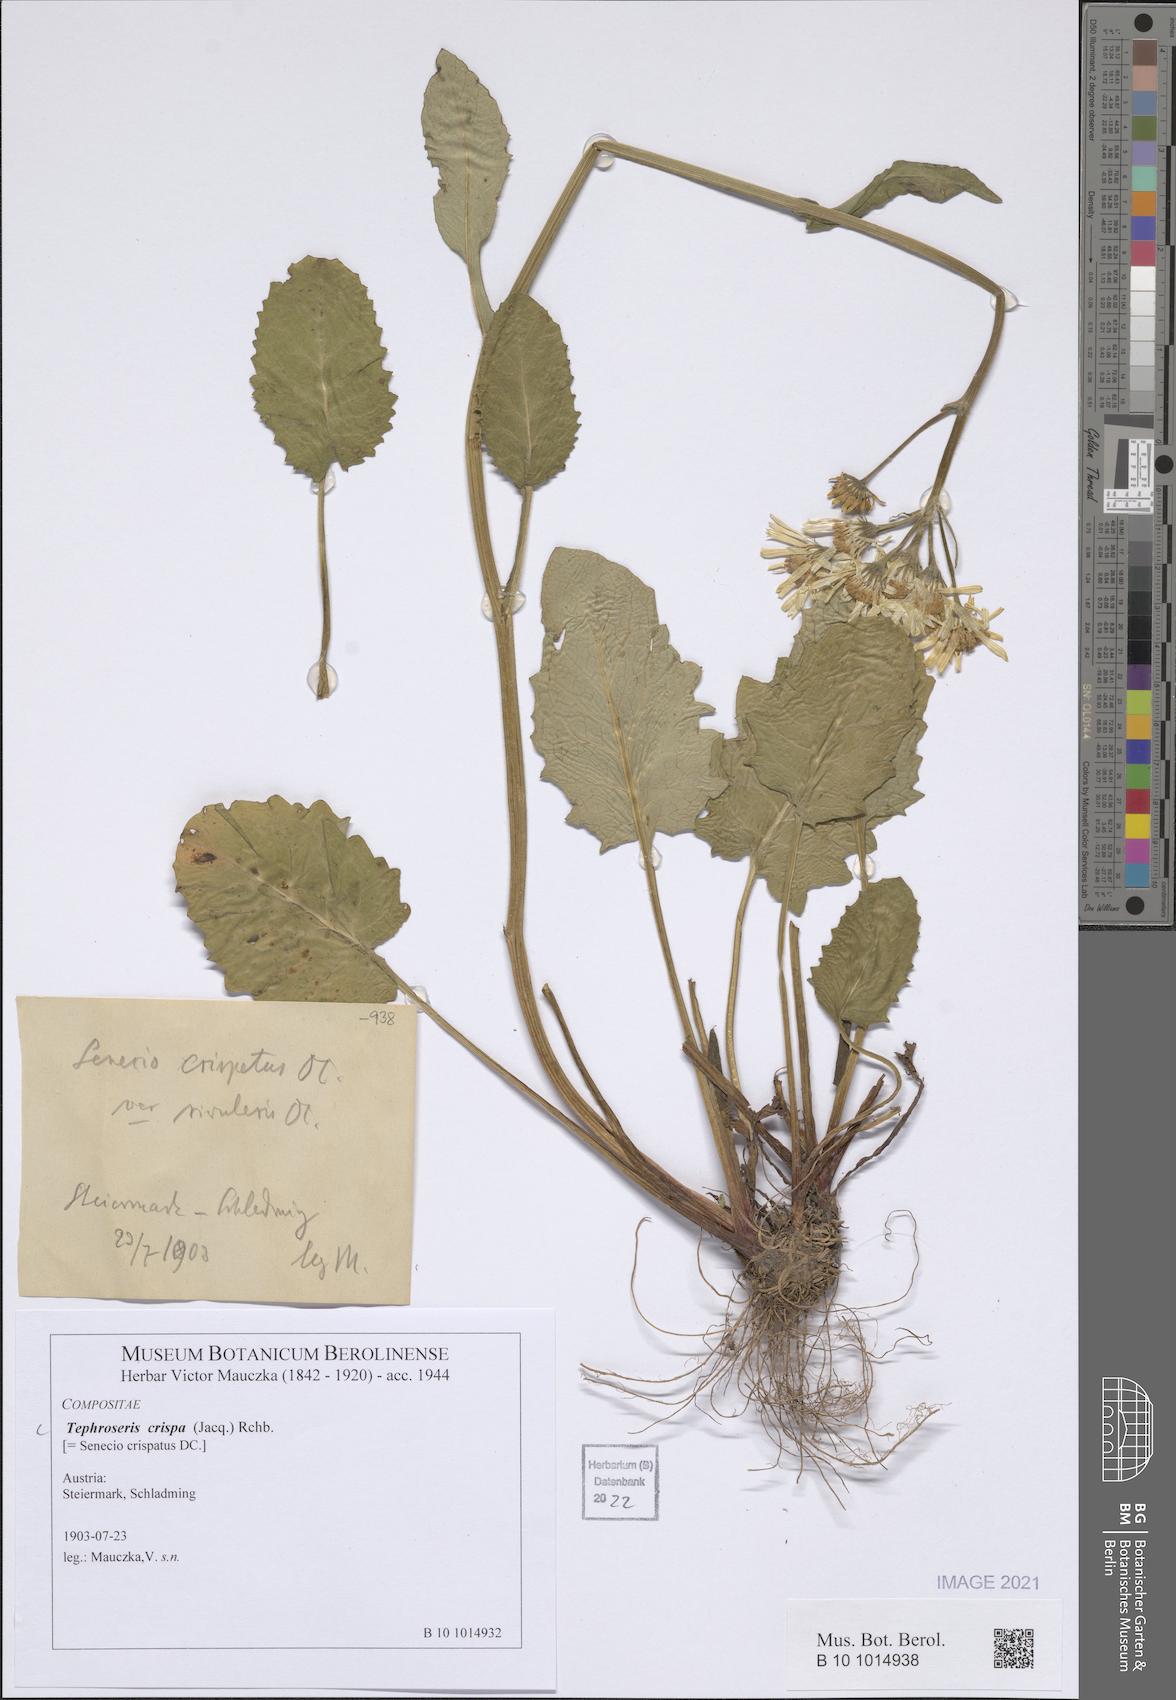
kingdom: Plantae
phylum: Tracheophyta
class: Magnoliopsida
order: Asterales
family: Asteraceae
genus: Tephroseris
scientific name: Tephroseris crispa
